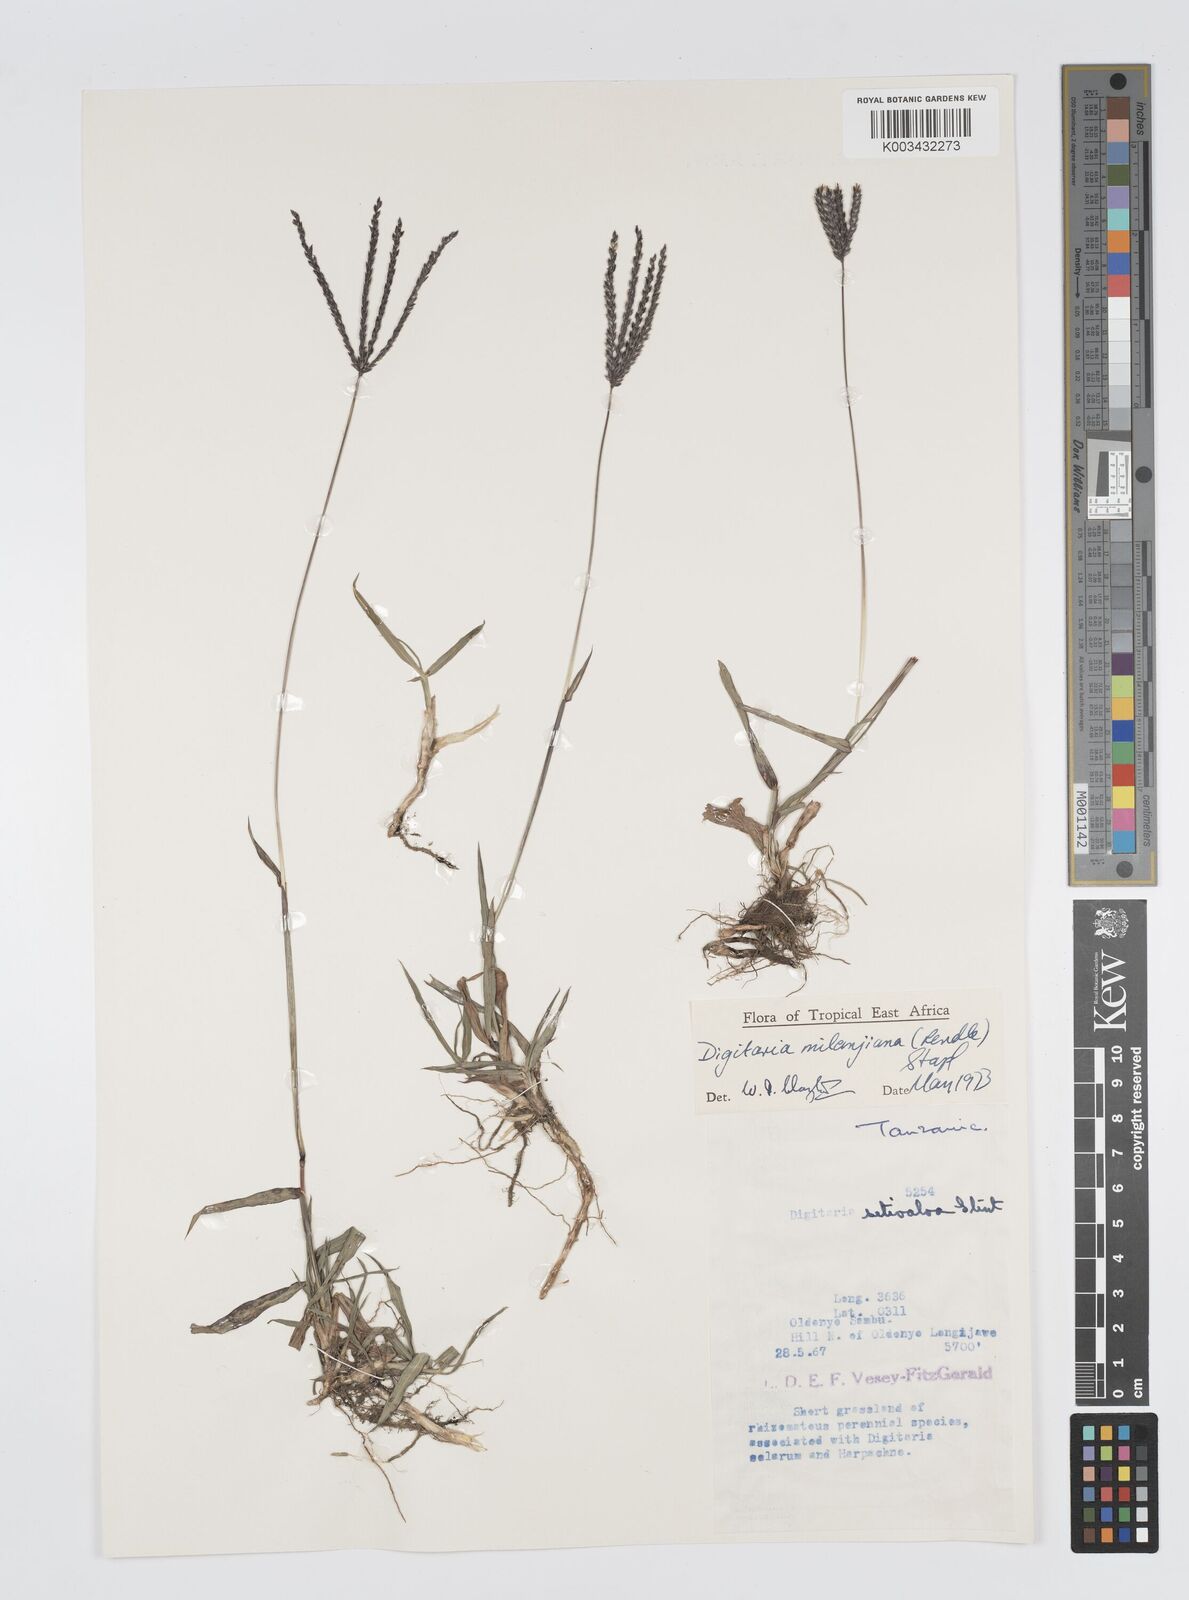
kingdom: Plantae
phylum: Tracheophyta
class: Liliopsida
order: Poales
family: Poaceae
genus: Digitaria
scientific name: Digitaria milanjiana
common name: Madagascar crabgrass
